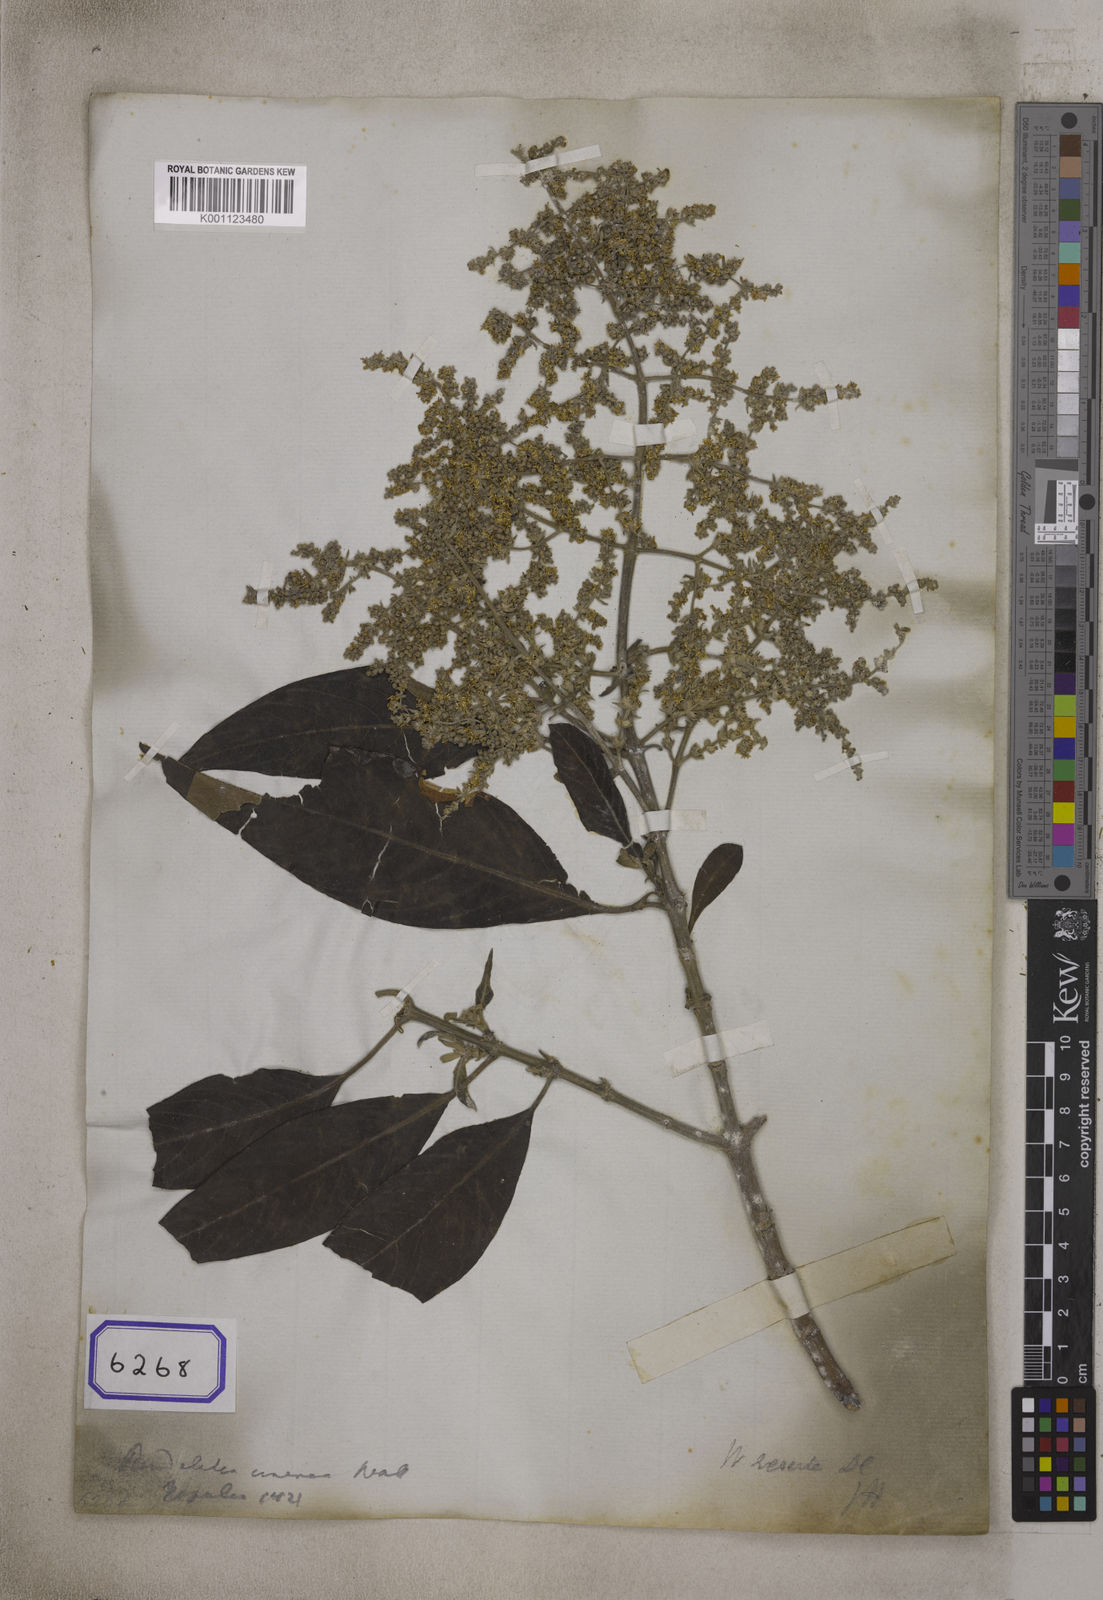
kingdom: Plantae
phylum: Tracheophyta
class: Magnoliopsida
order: Gentianales
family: Rubiaceae
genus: Wendlandia
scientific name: Wendlandia heynei
